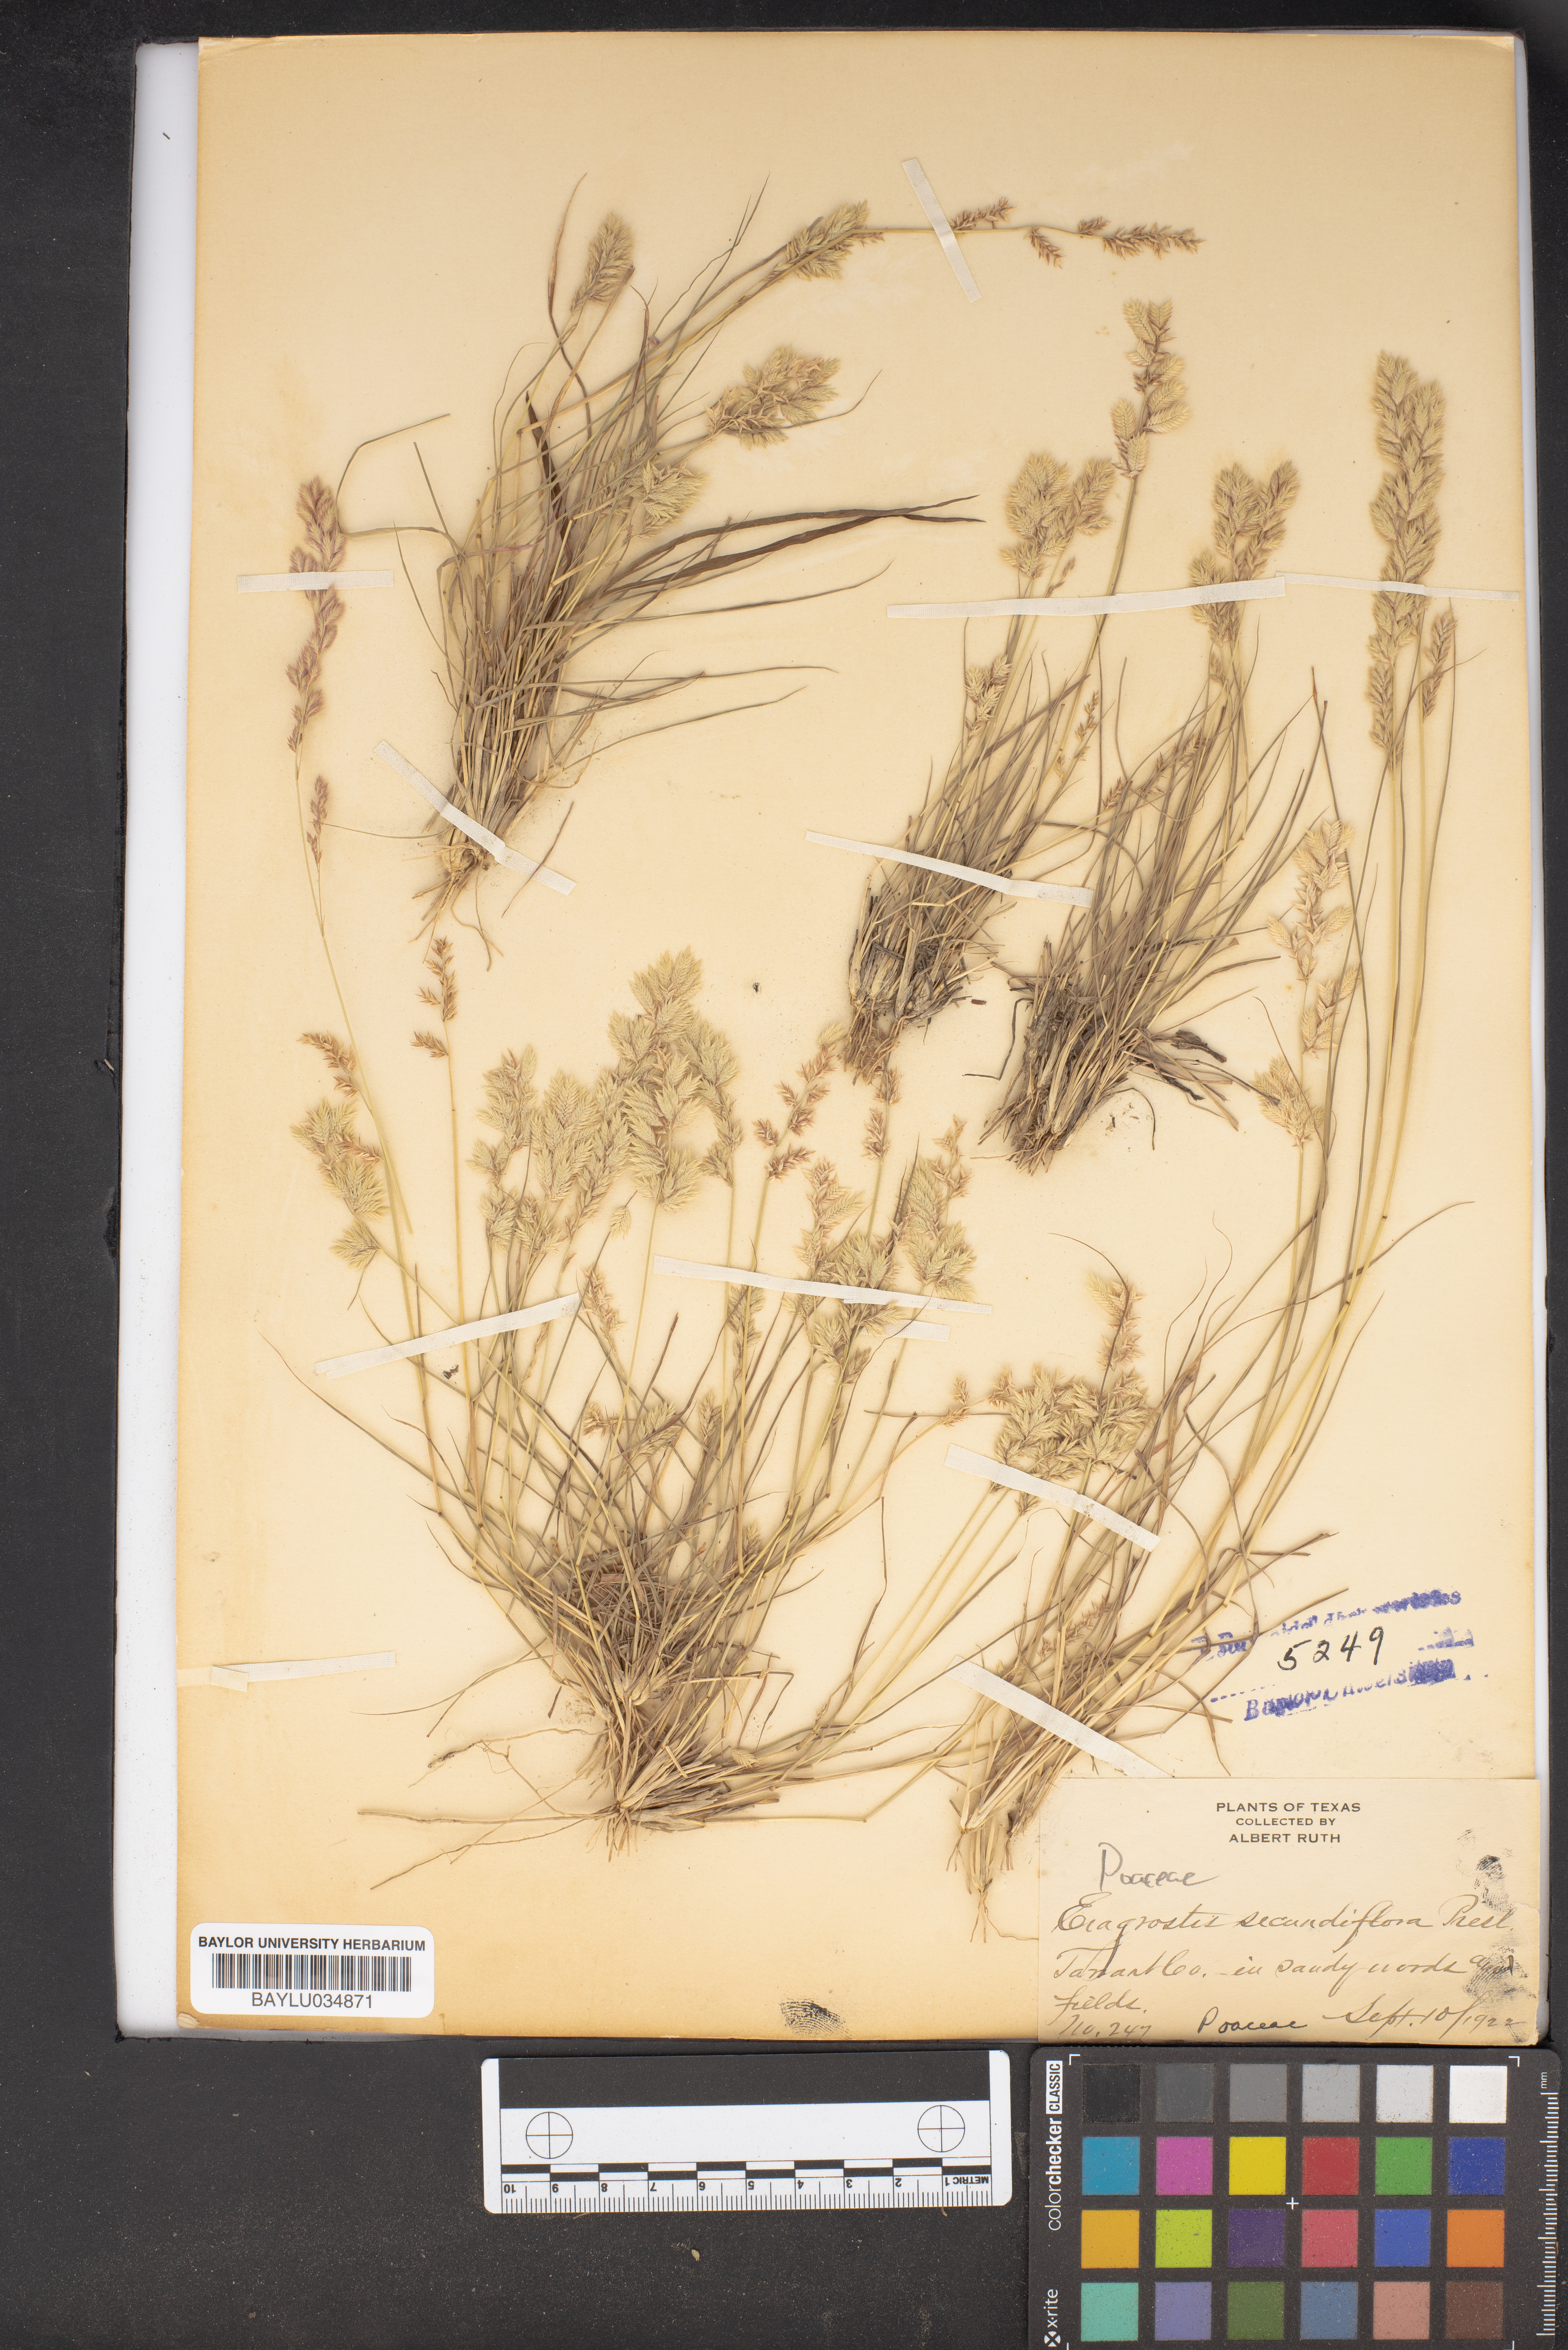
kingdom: Plantae
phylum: Tracheophyta
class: Liliopsida
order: Poales
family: Poaceae
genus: Eragrostis
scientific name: Eragrostis secundiflora
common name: Red love grass
